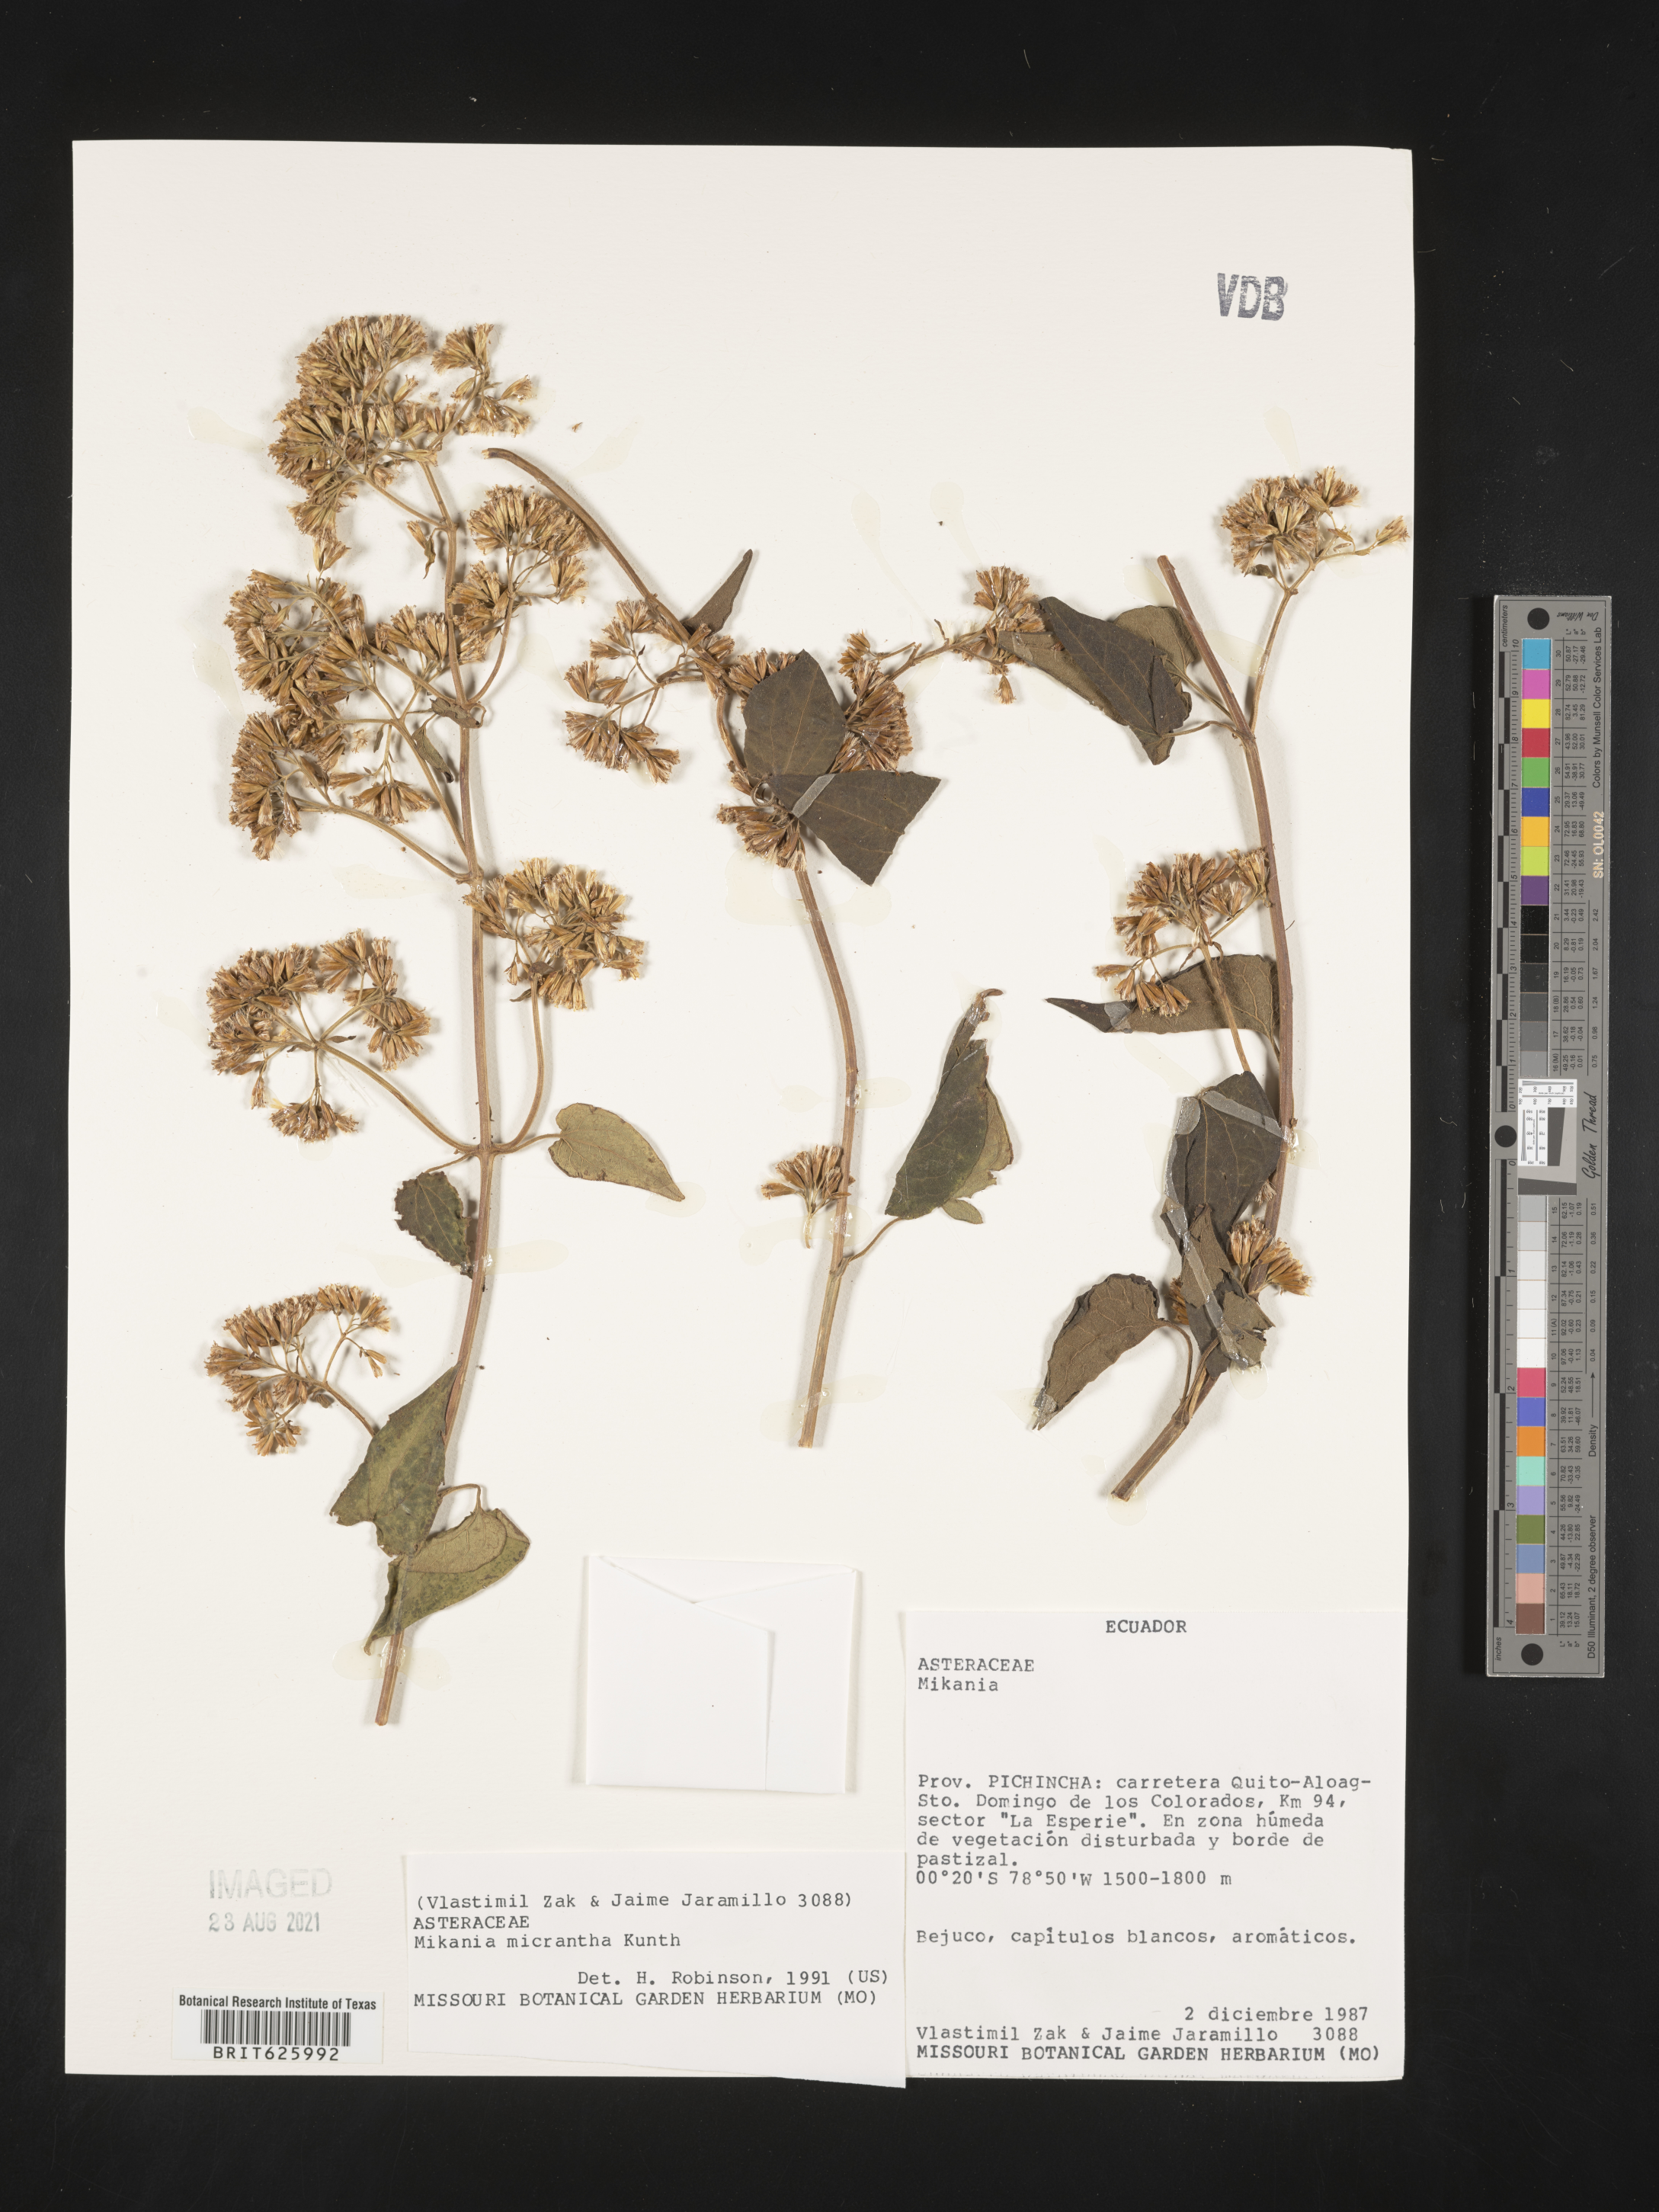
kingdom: Plantae
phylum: Tracheophyta
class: Magnoliopsida
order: Asterales
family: Asteraceae
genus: Mikania
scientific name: Mikania micrantha
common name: Mile-a-minute
